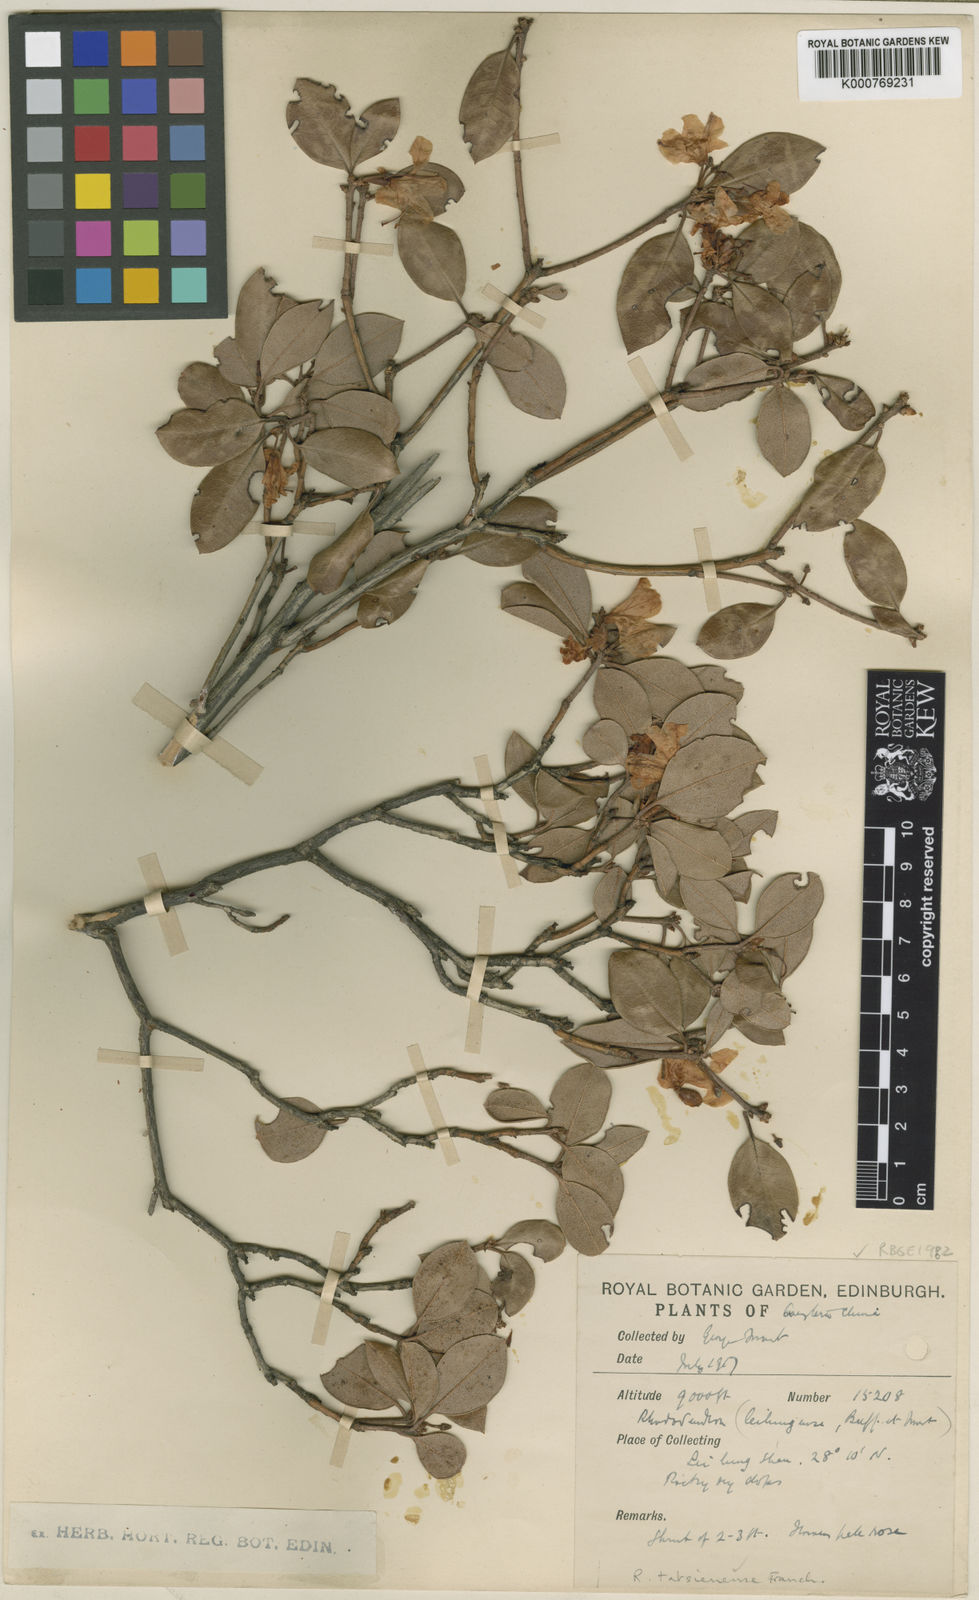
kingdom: Plantae
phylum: Tracheophyta
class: Magnoliopsida
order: Ericales
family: Ericaceae
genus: Rhododendron
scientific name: Rhododendron tatsienense
